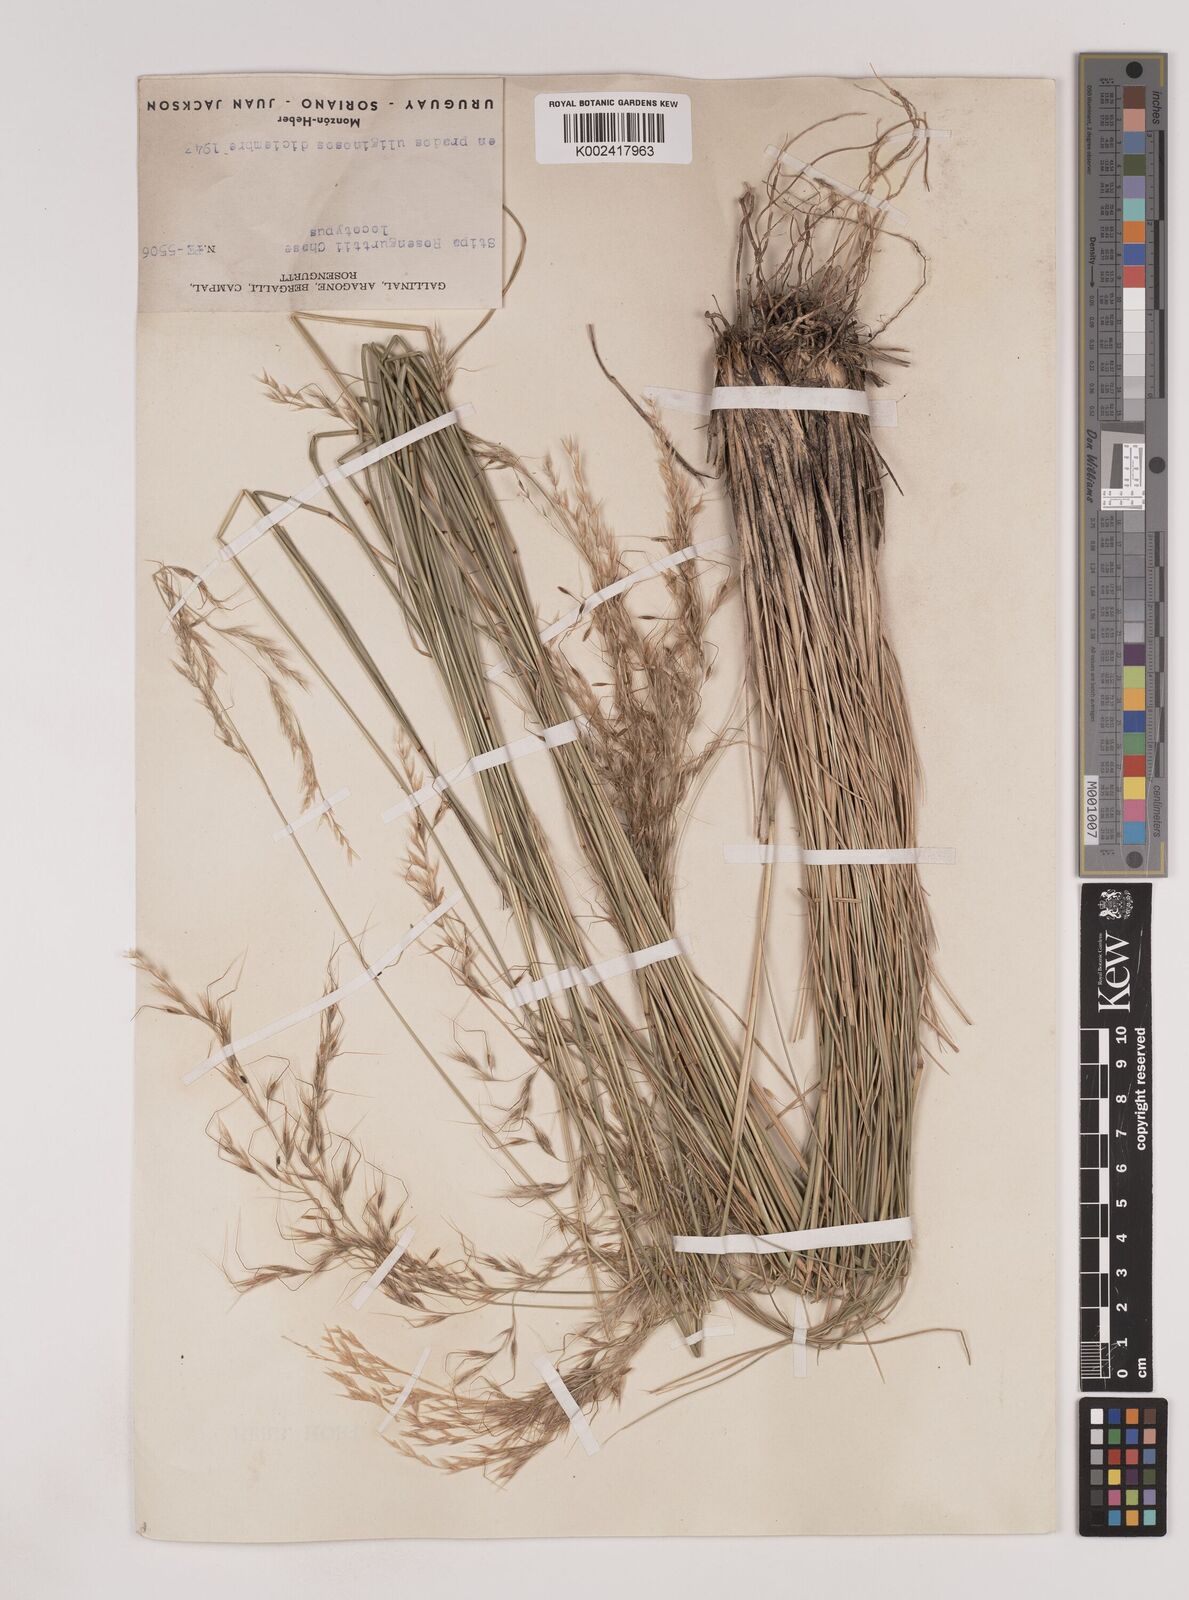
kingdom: Plantae
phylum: Tracheophyta
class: Liliopsida
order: Poales
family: Poaceae
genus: Nassella
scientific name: Nassella rosengurttii
